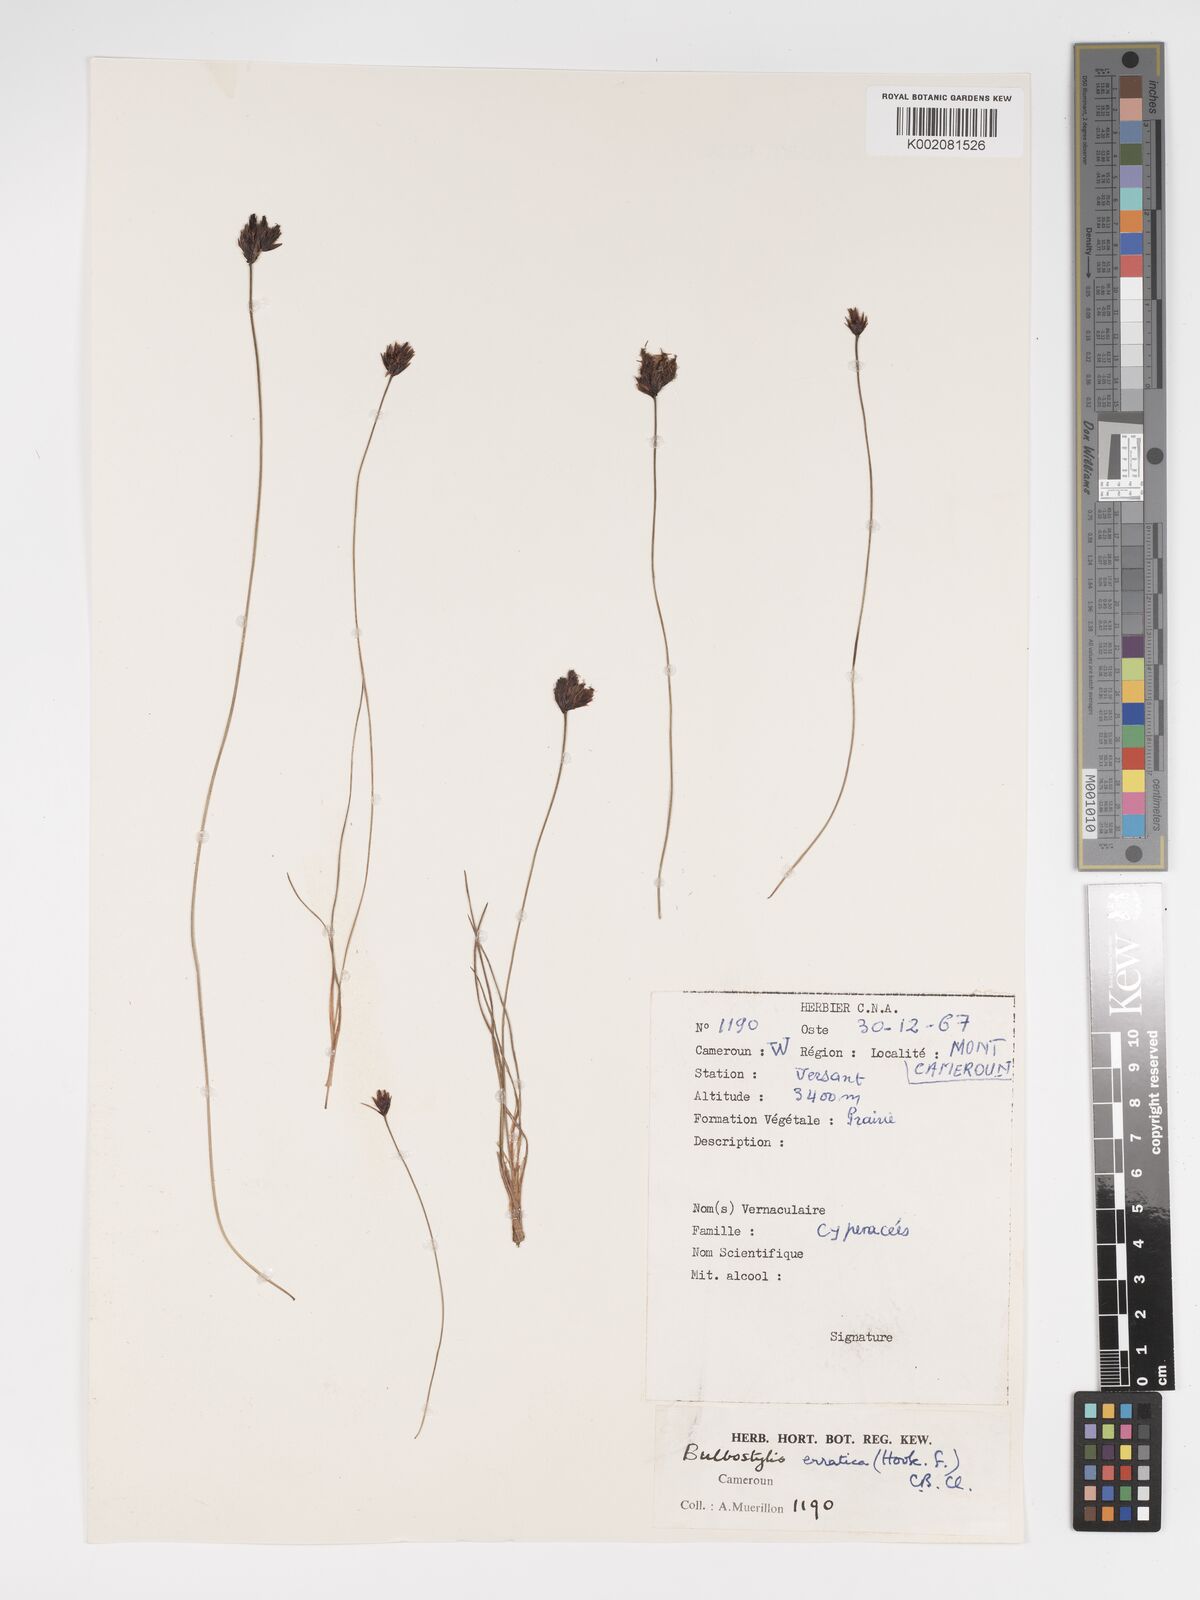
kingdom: Plantae
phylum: Tracheophyta
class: Liliopsida
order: Poales
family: Cyperaceae
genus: Bulbostylis
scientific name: Bulbostylis schoenoides
